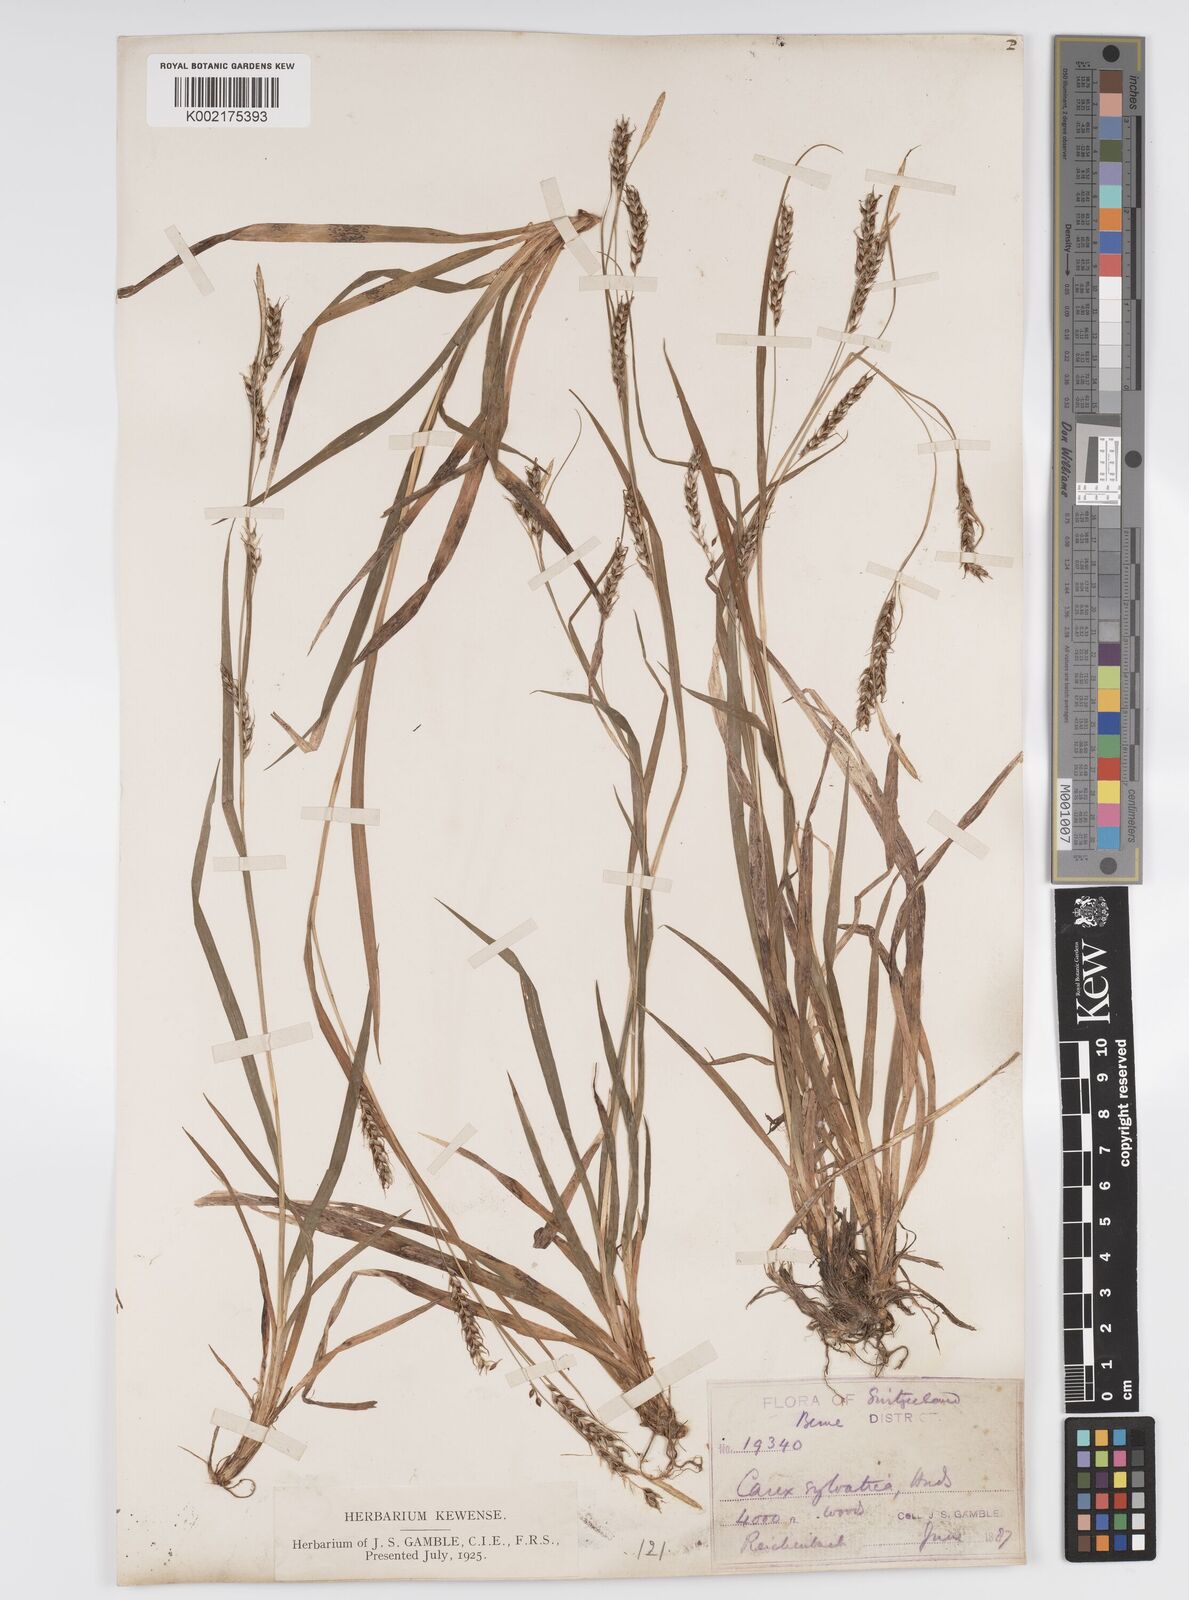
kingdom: Plantae
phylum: Tracheophyta
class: Liliopsida
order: Poales
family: Cyperaceae
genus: Carex
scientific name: Carex sylvatica
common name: Wood-sedge
